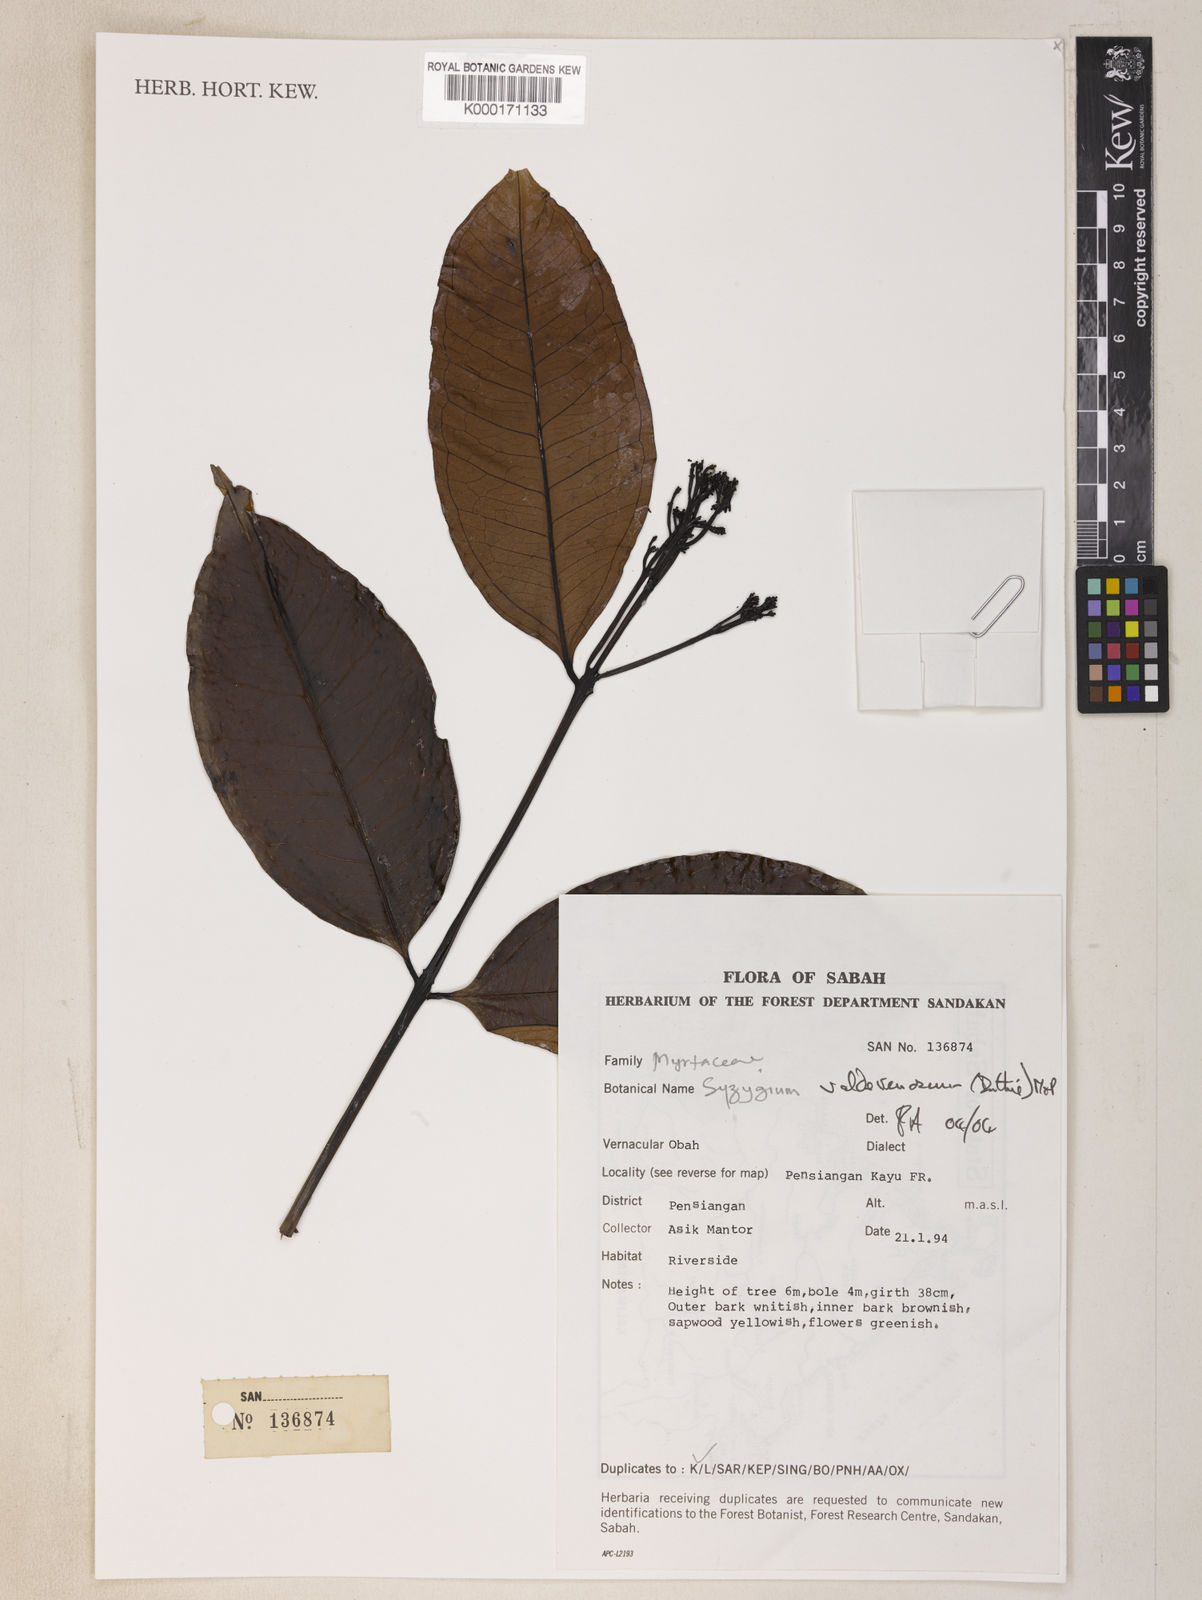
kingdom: Plantae
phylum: Tracheophyta
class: Magnoliopsida
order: Myrtales
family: Myrtaceae
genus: Syzygium
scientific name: Syzygium valdevenosum
